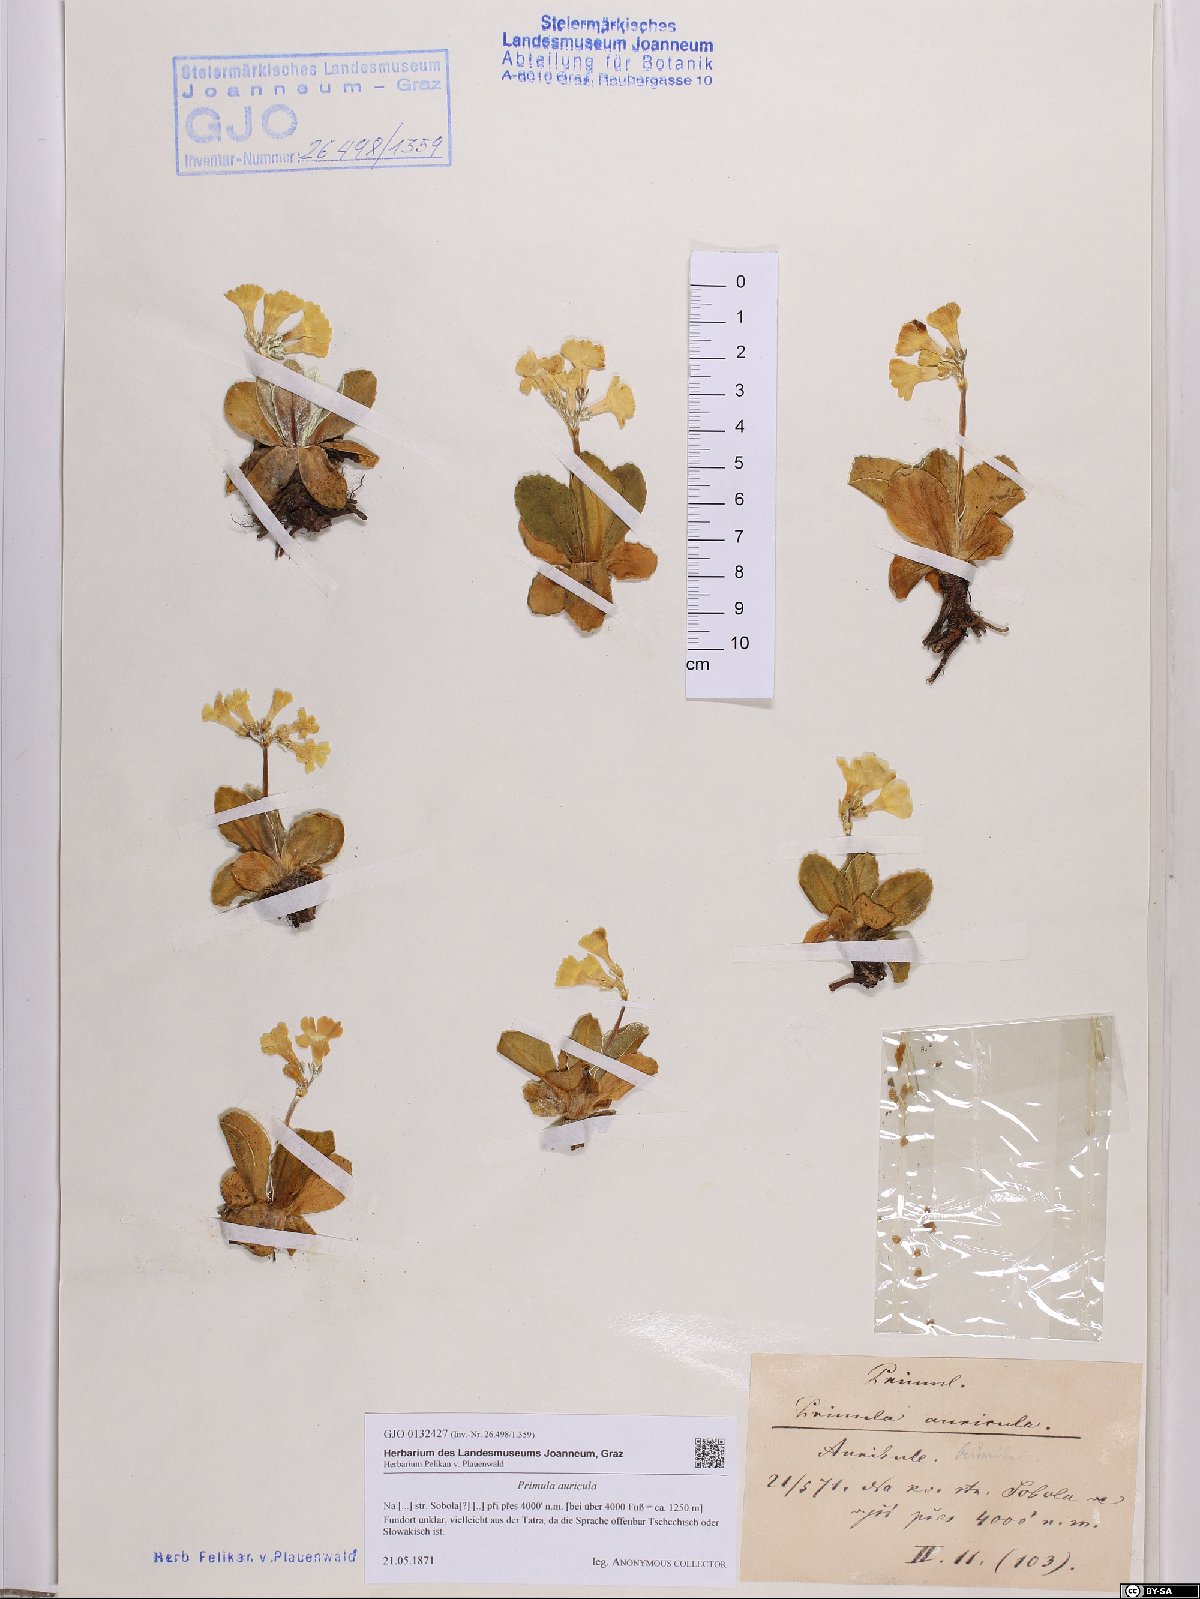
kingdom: Plantae
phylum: Tracheophyta
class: Magnoliopsida
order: Ericales
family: Primulaceae
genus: Primula
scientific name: Primula auricula
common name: Auricula
